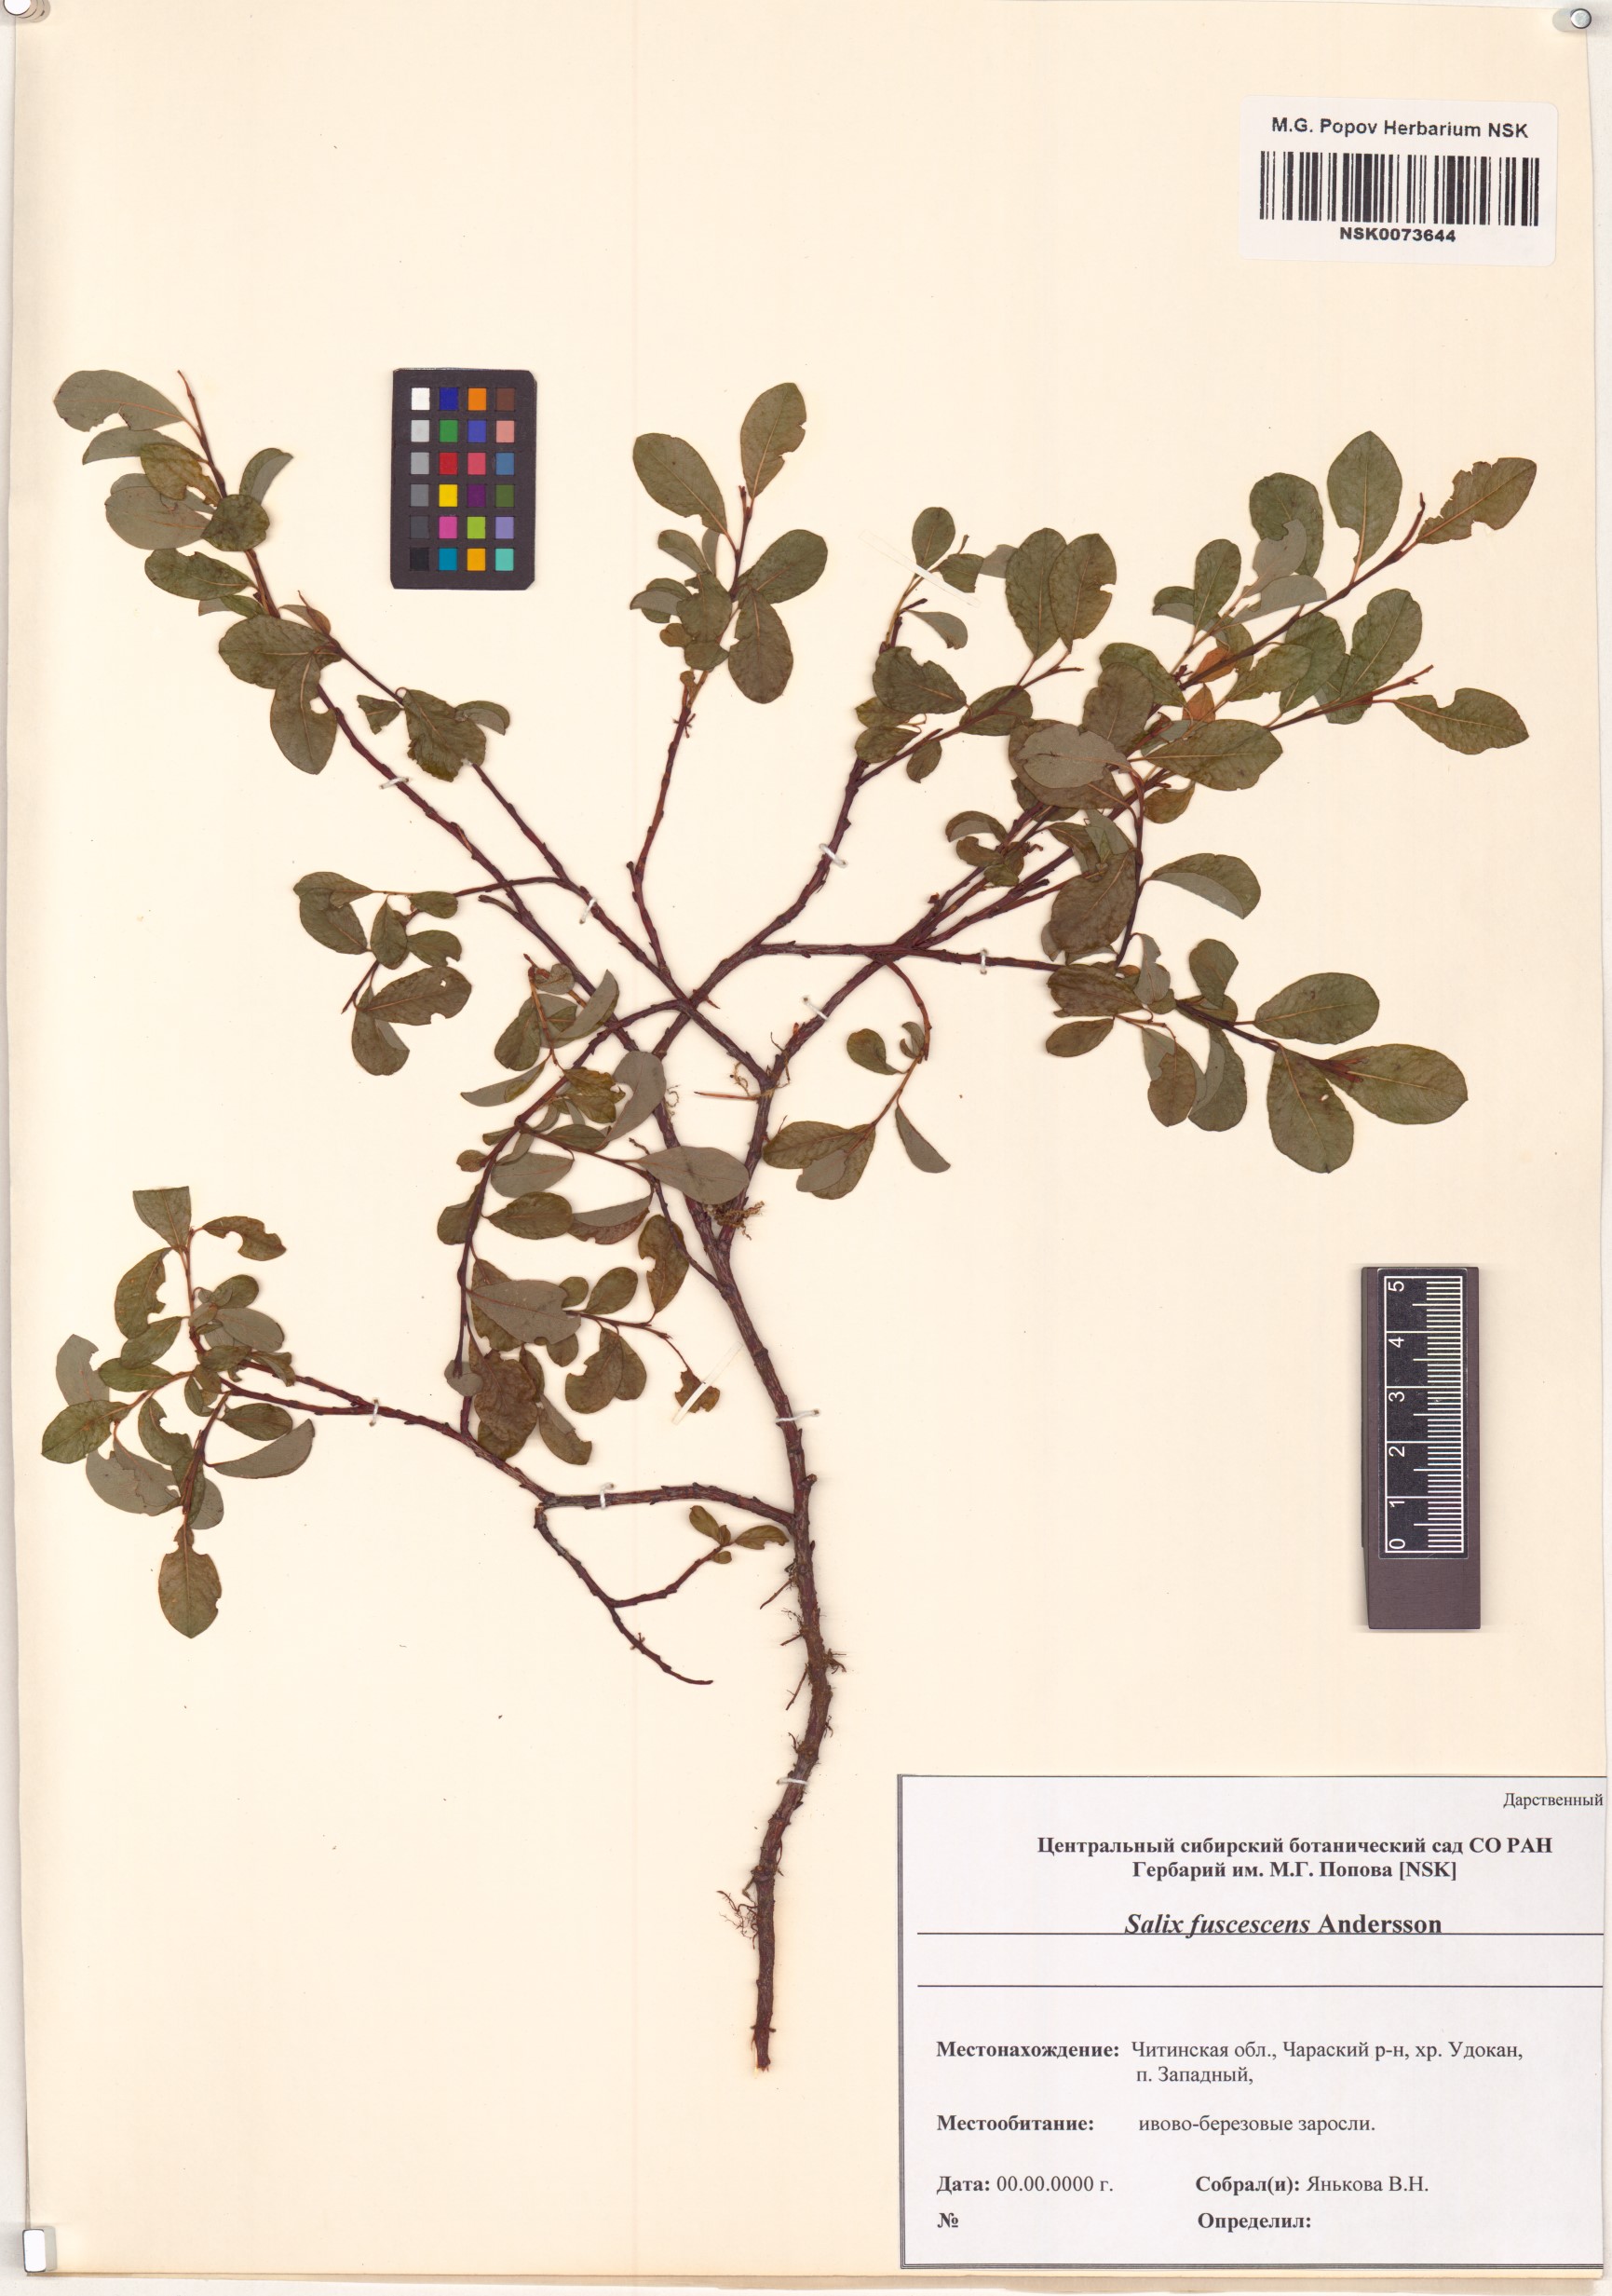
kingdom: Plantae
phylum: Tracheophyta
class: Magnoliopsida
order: Malpighiales
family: Salicaceae
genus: Salix
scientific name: Salix fuscescens
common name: Brownish willow
